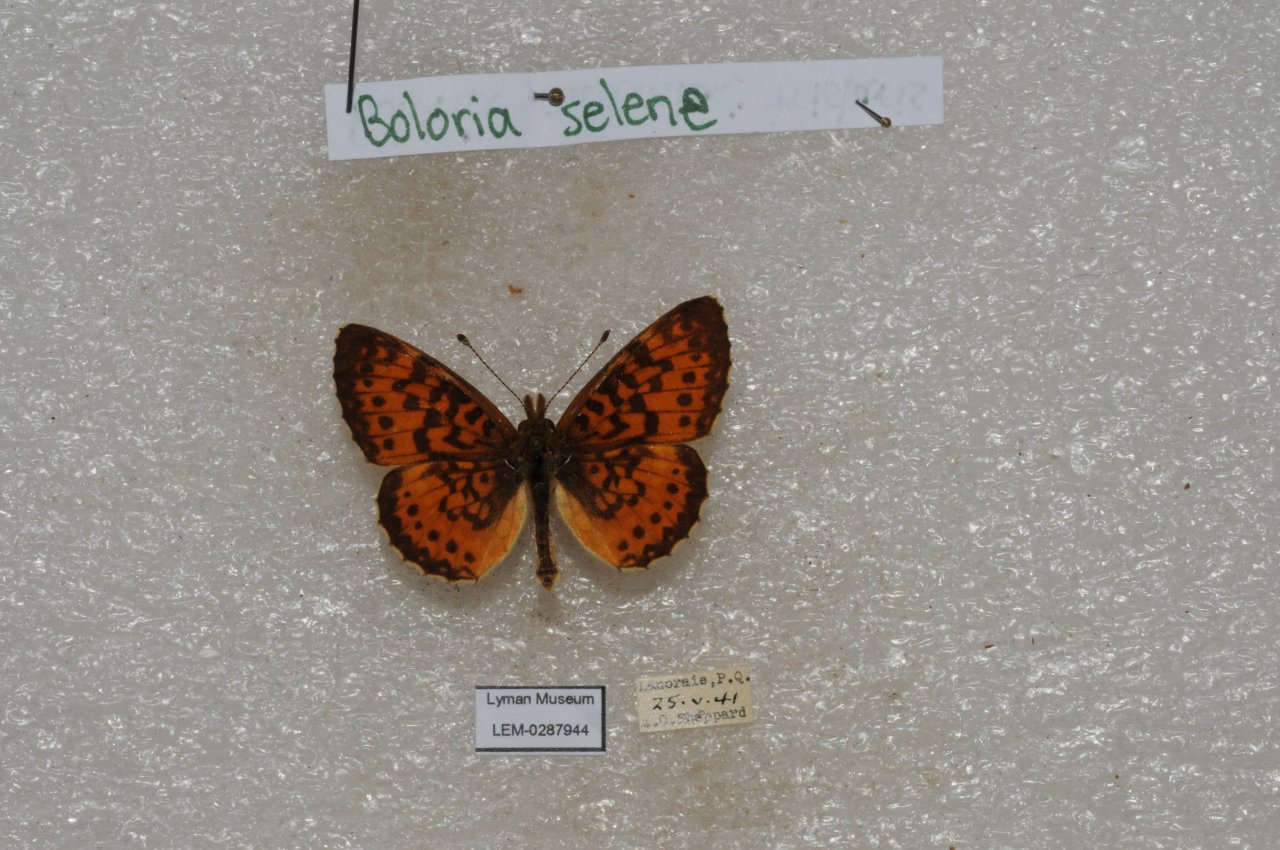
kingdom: Animalia
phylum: Arthropoda
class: Insecta
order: Lepidoptera
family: Nymphalidae
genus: Boloria
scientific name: Boloria selene
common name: Silver-bordered Fritillary
